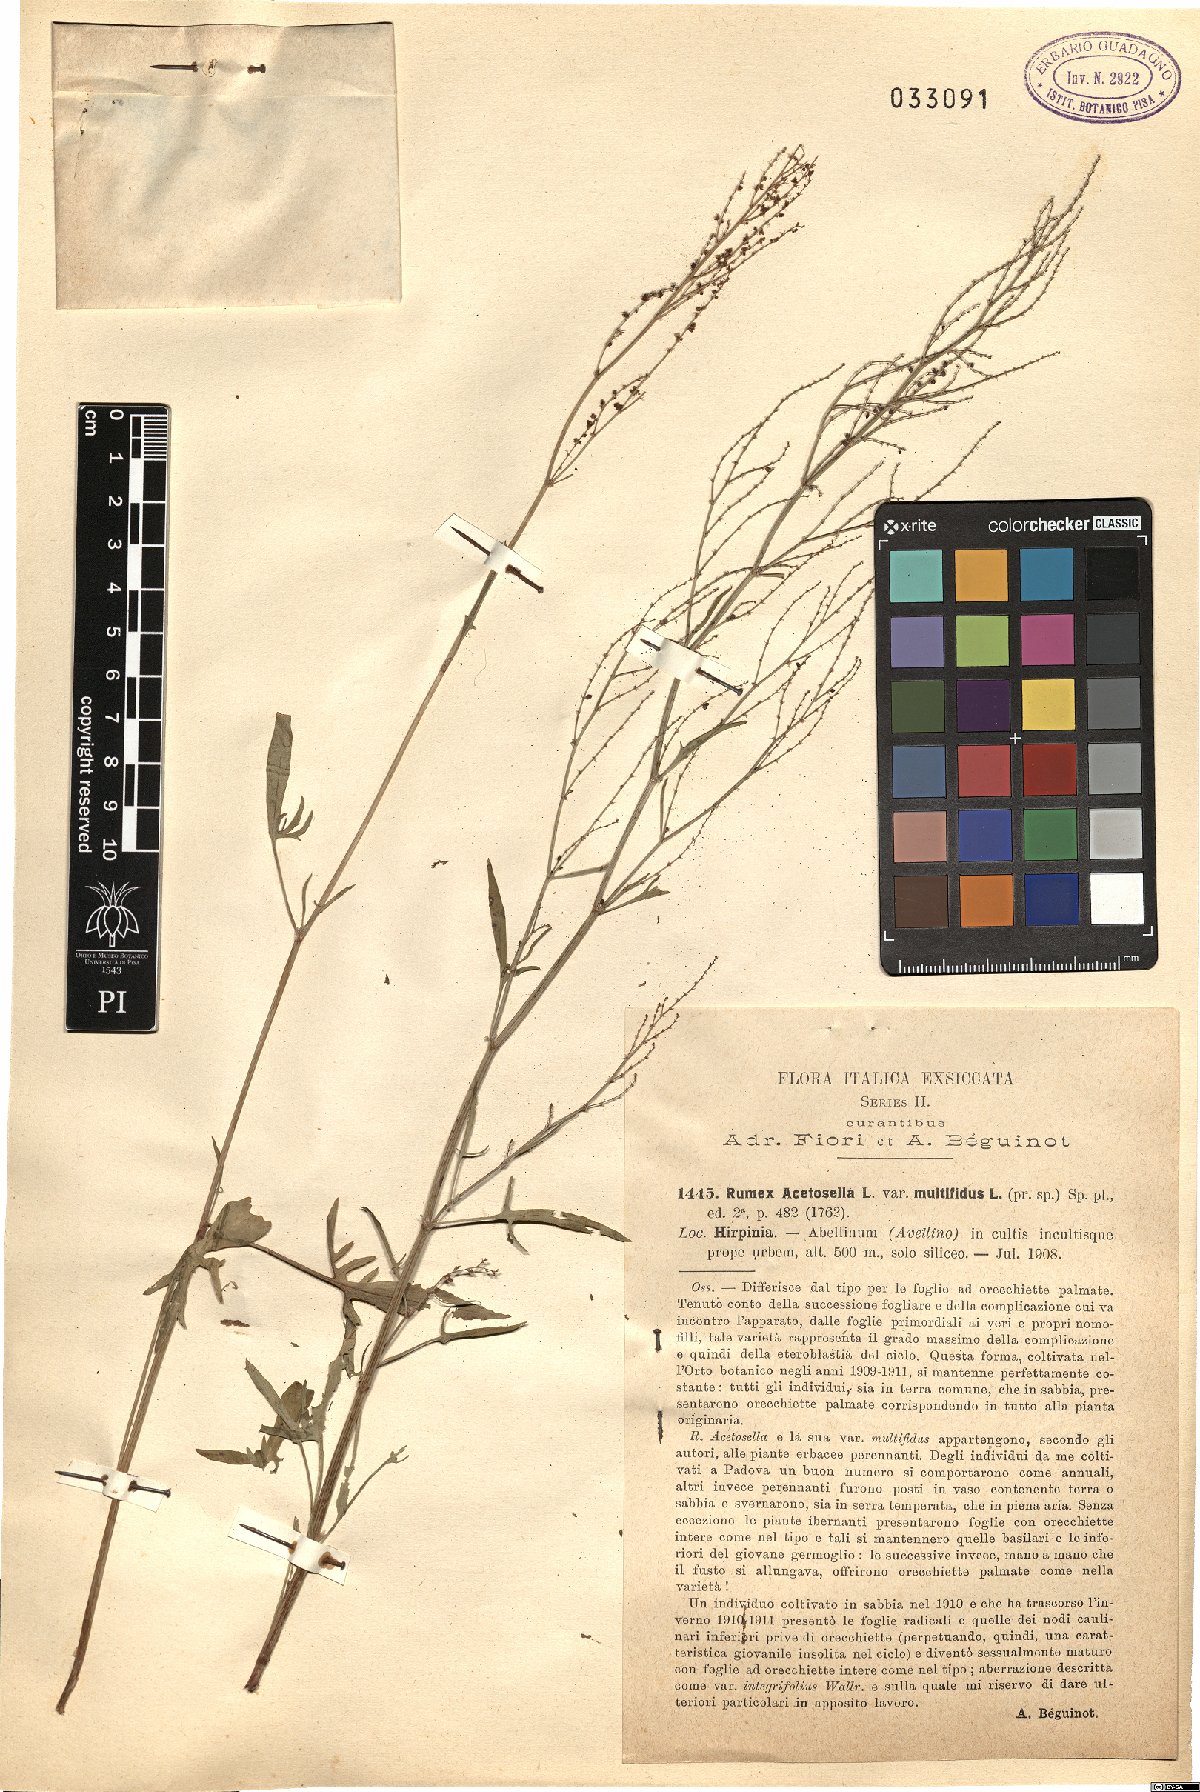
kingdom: Plantae
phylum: Tracheophyta
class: Magnoliopsida
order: Caryophyllales
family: Polygonaceae
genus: Rumex
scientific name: Rumex acetosella
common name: Common sheep sorrel
